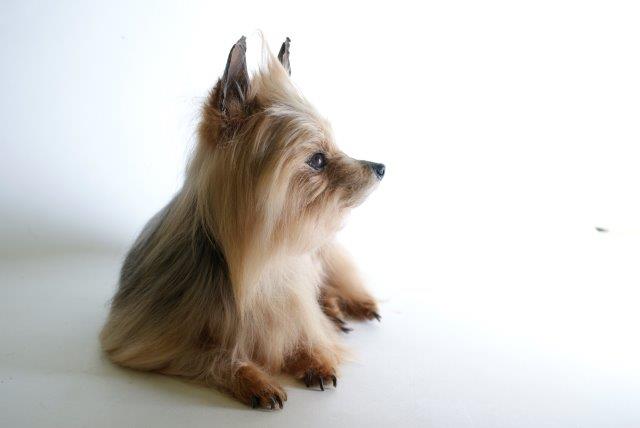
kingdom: Animalia
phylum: Chordata
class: Mammalia
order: Carnivora
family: Canidae
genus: Canis
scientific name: Canis lupus
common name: Gray wolf
